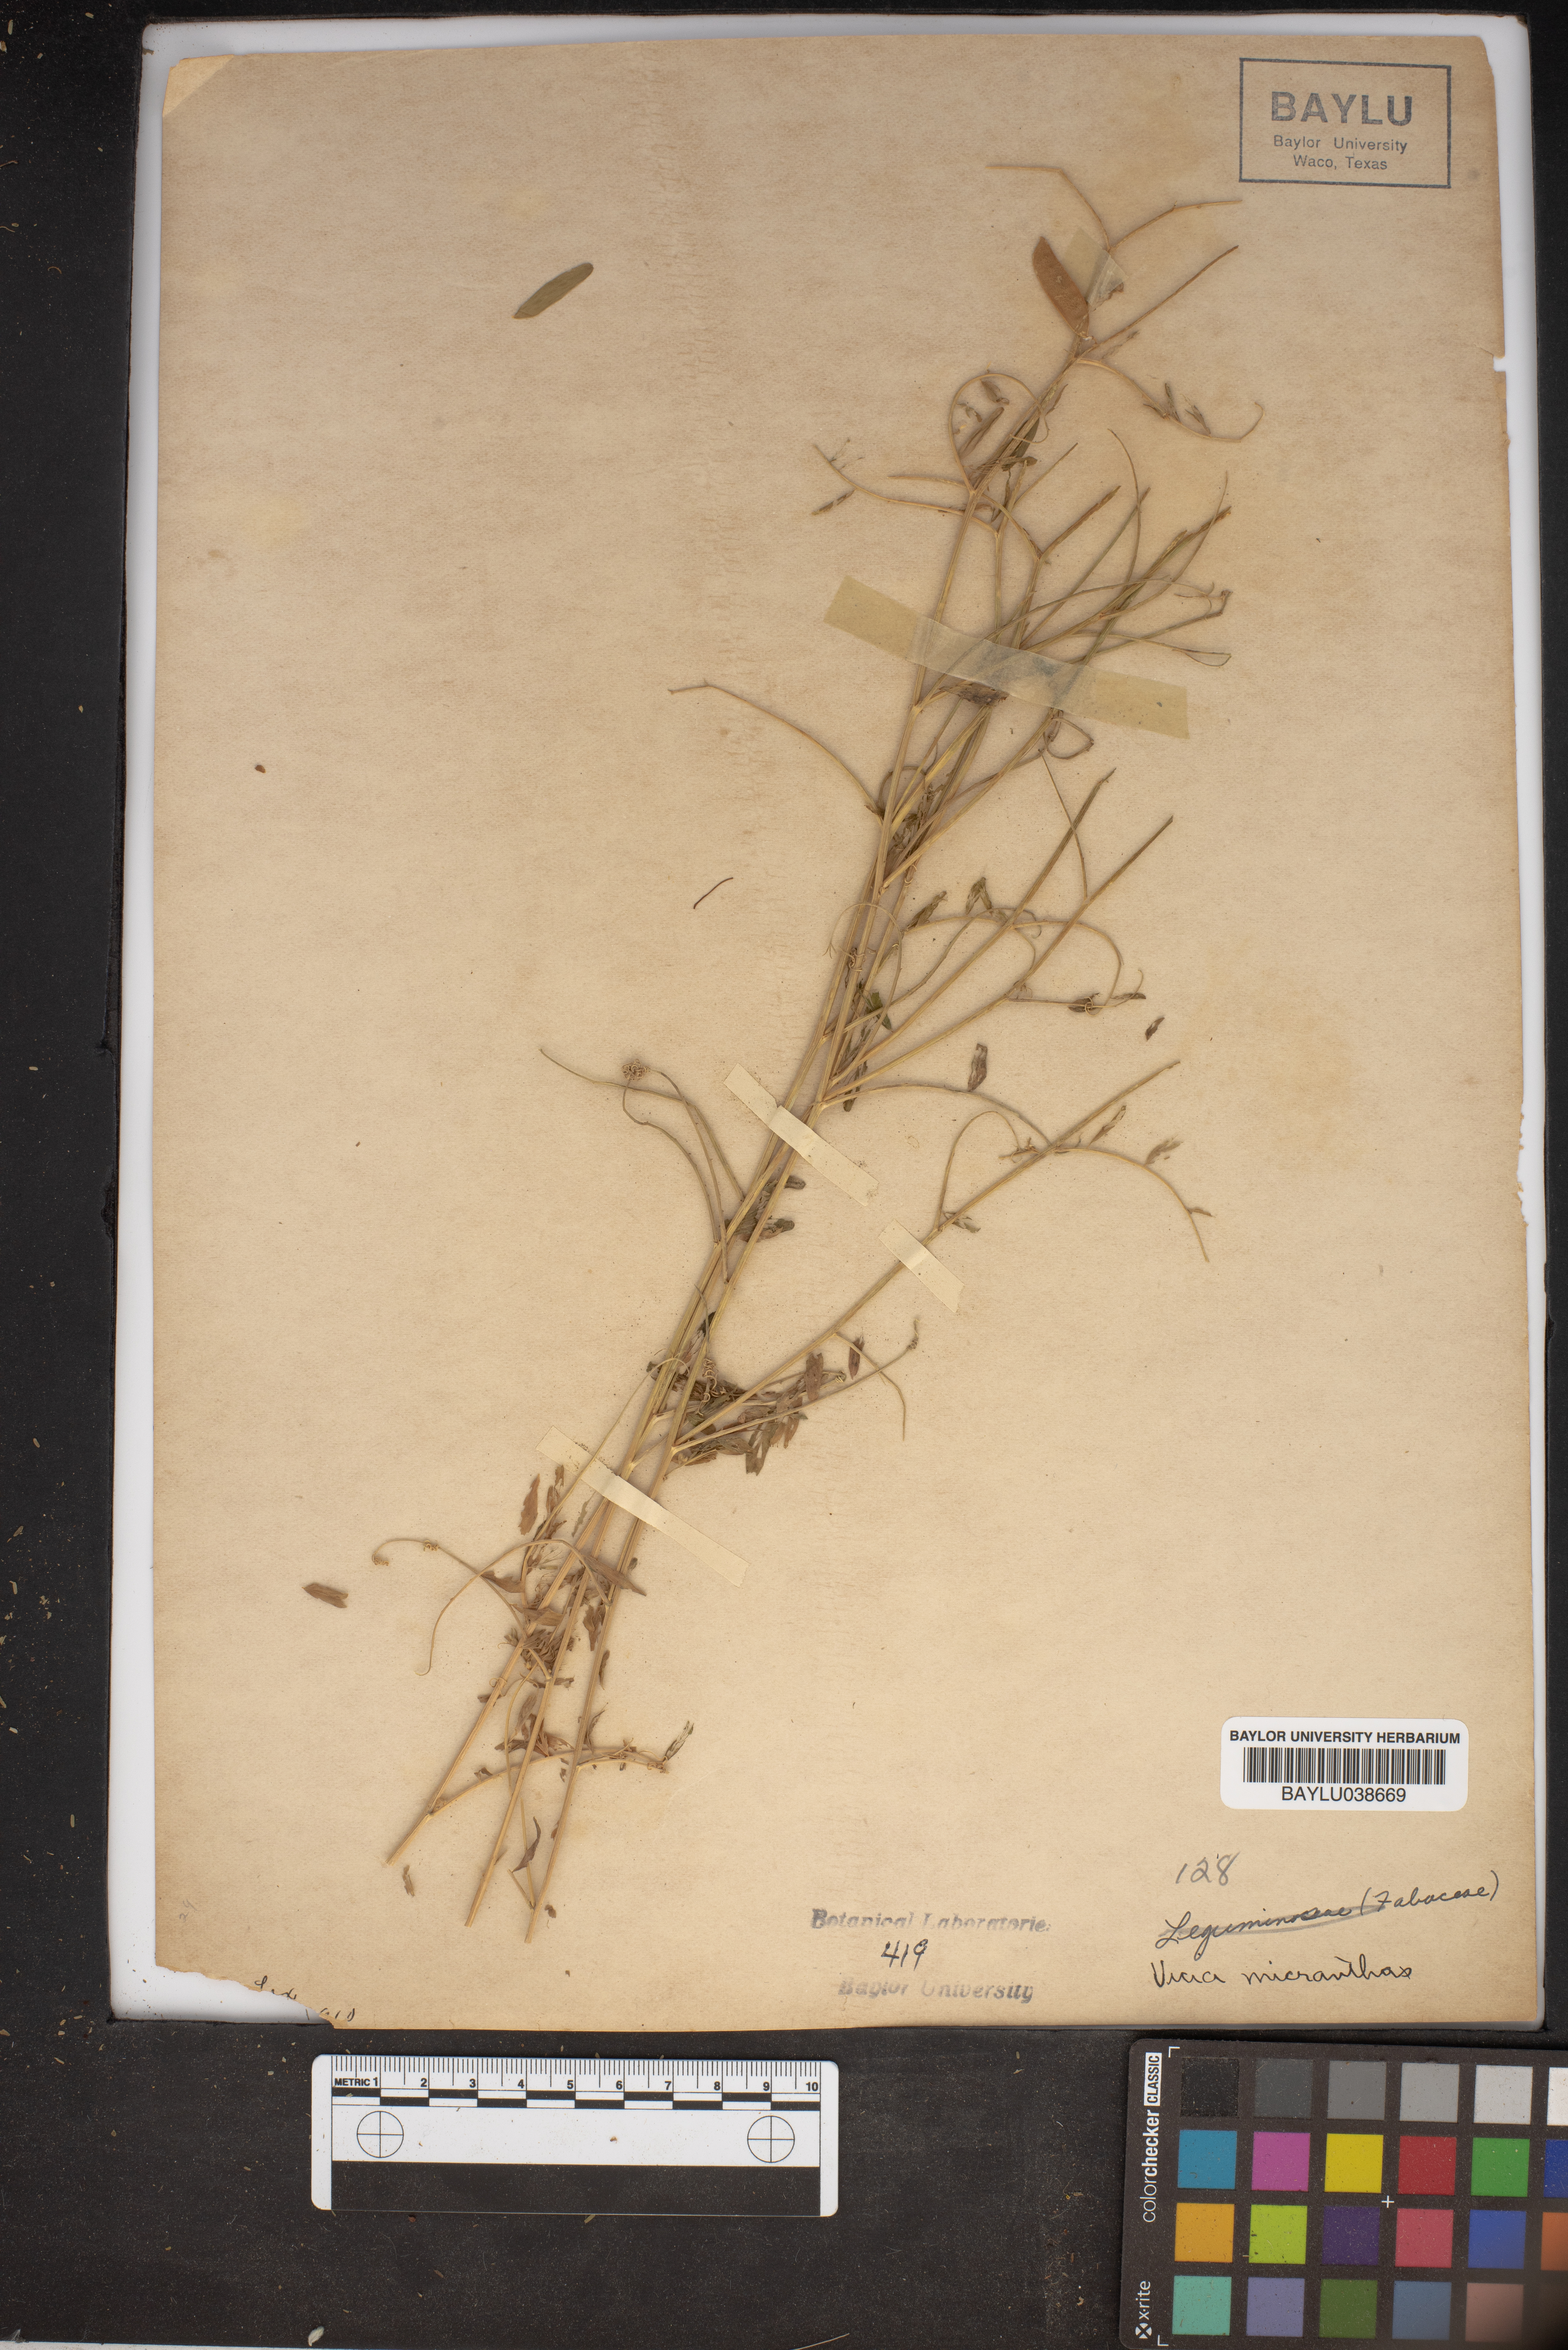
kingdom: Plantae
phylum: Tracheophyta
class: Magnoliopsida
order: Fabales
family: Fabaceae
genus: Vicia
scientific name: Vicia minutiflora
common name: Pygmy-flower vetch
